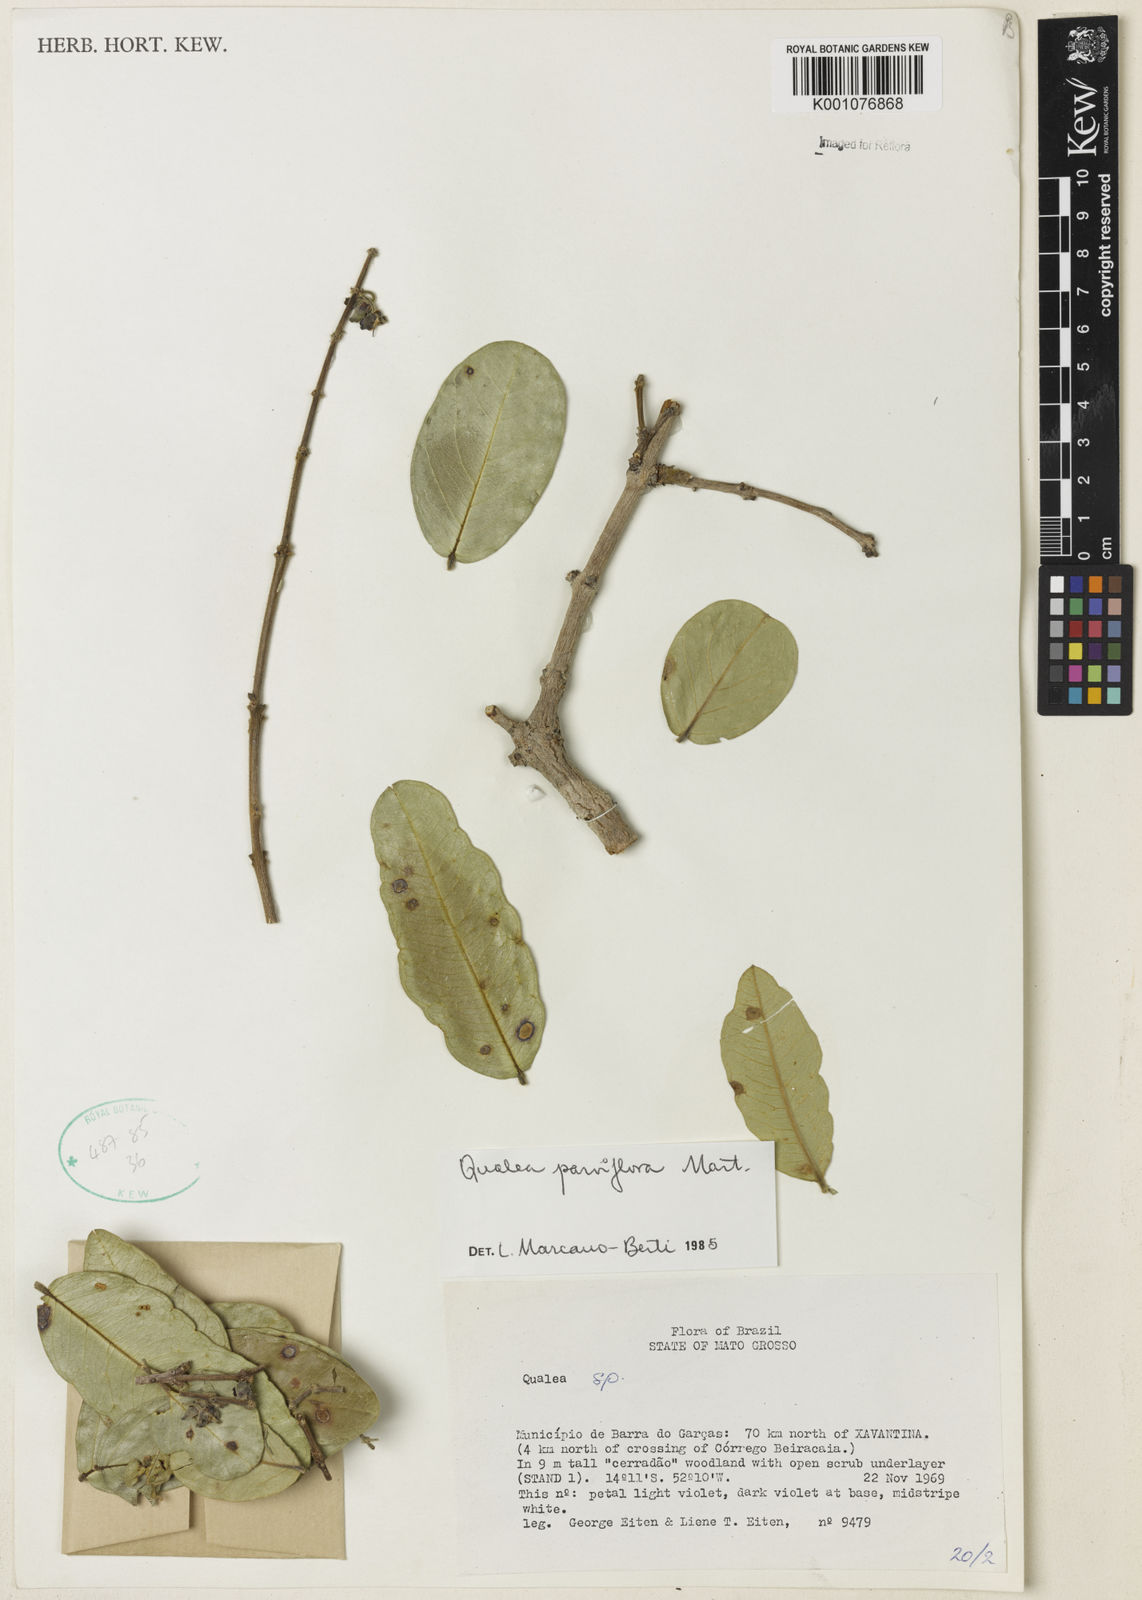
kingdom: Plantae
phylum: Tracheophyta
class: Magnoliopsida
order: Myrtales
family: Vochysiaceae
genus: Qualea
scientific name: Qualea parviflora
